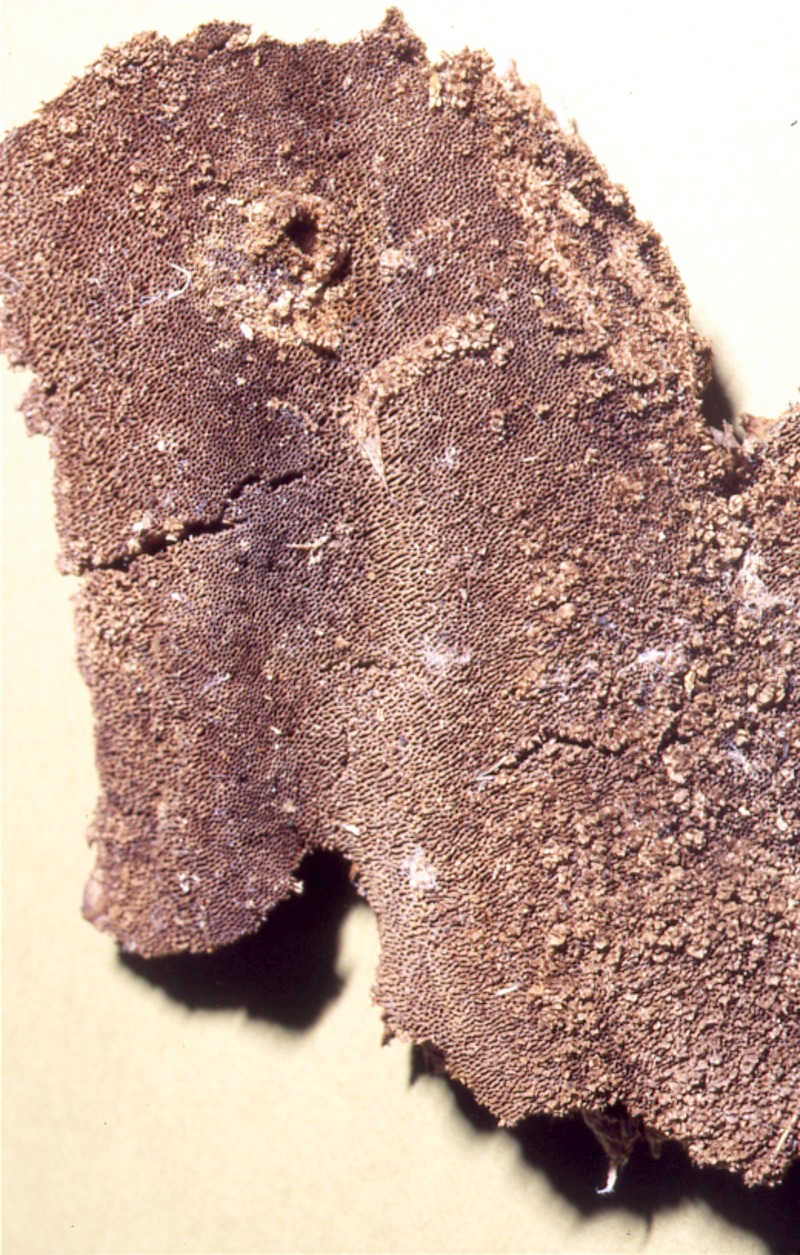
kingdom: Plantae
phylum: Tracheophyta
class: Magnoliopsida
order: Fabales
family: Fabaceae
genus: Robinia
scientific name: Robinia pseudoacacia
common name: Black locust
